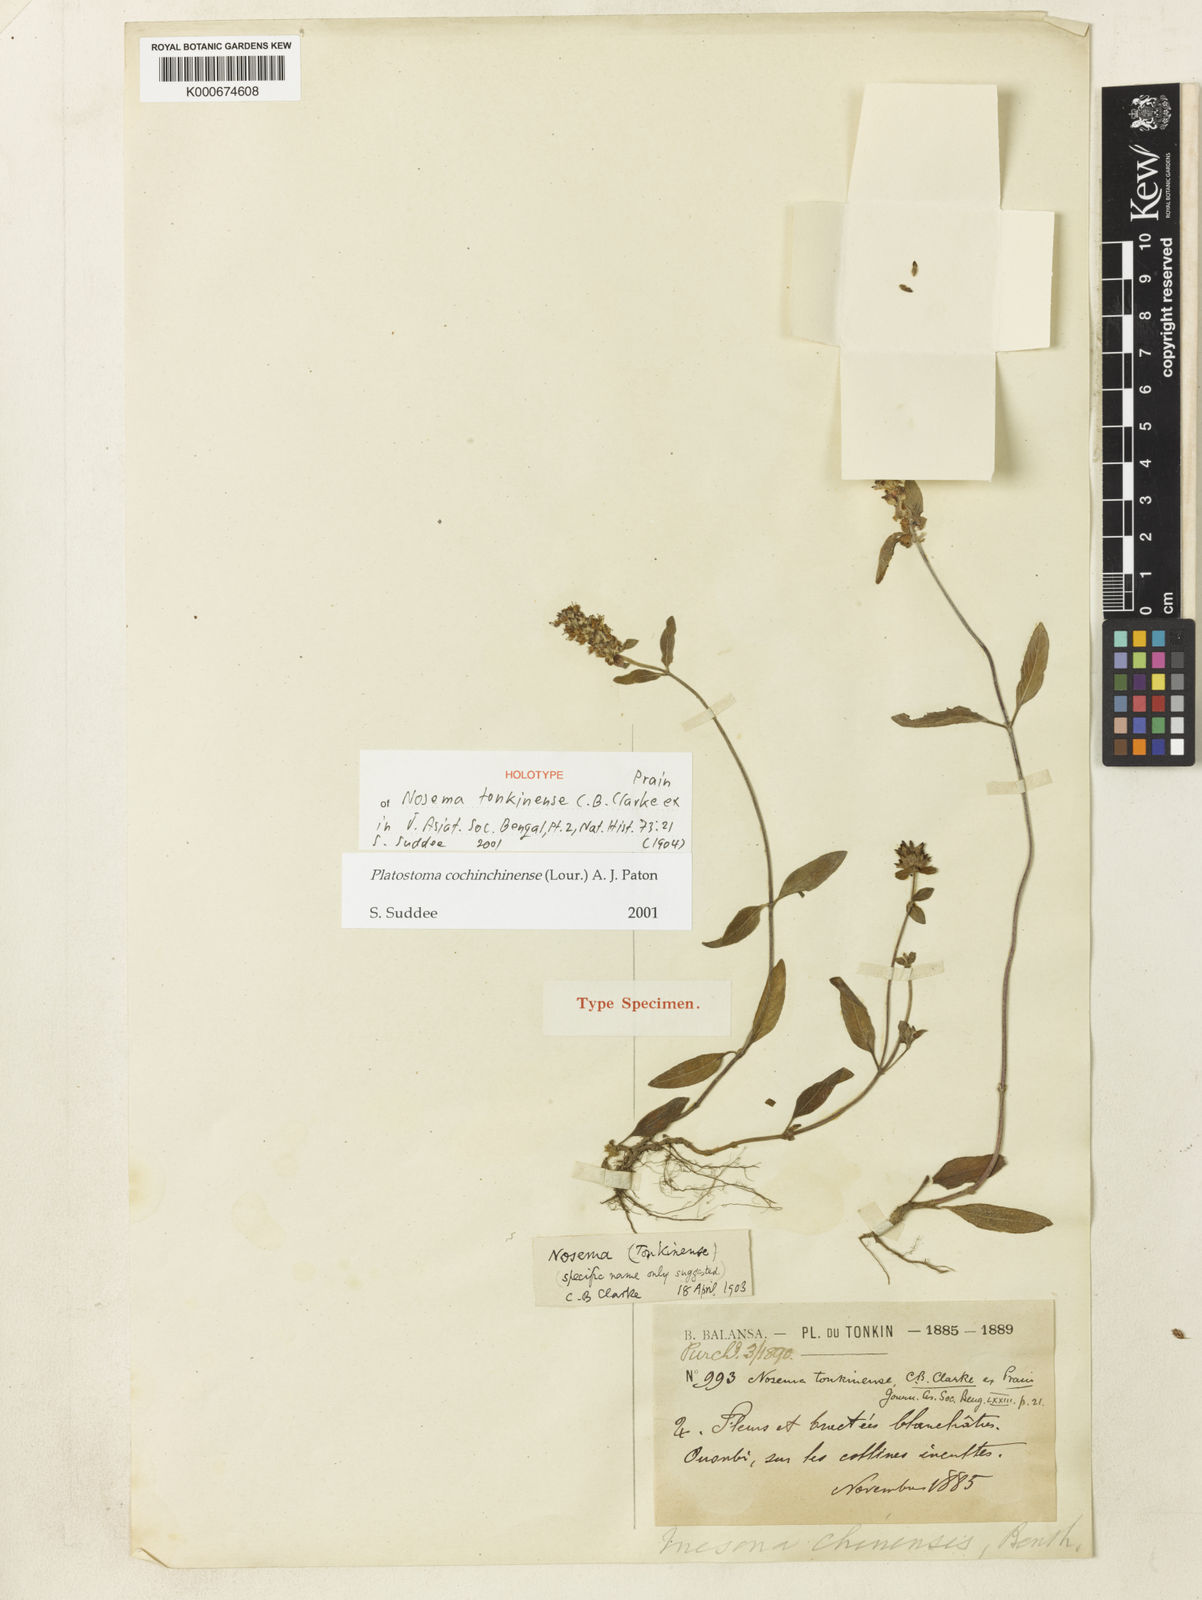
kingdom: Plantae
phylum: Tracheophyta
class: Magnoliopsida
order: Lamiales
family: Lamiaceae
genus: Platostoma
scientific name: Platostoma cochinchinense
